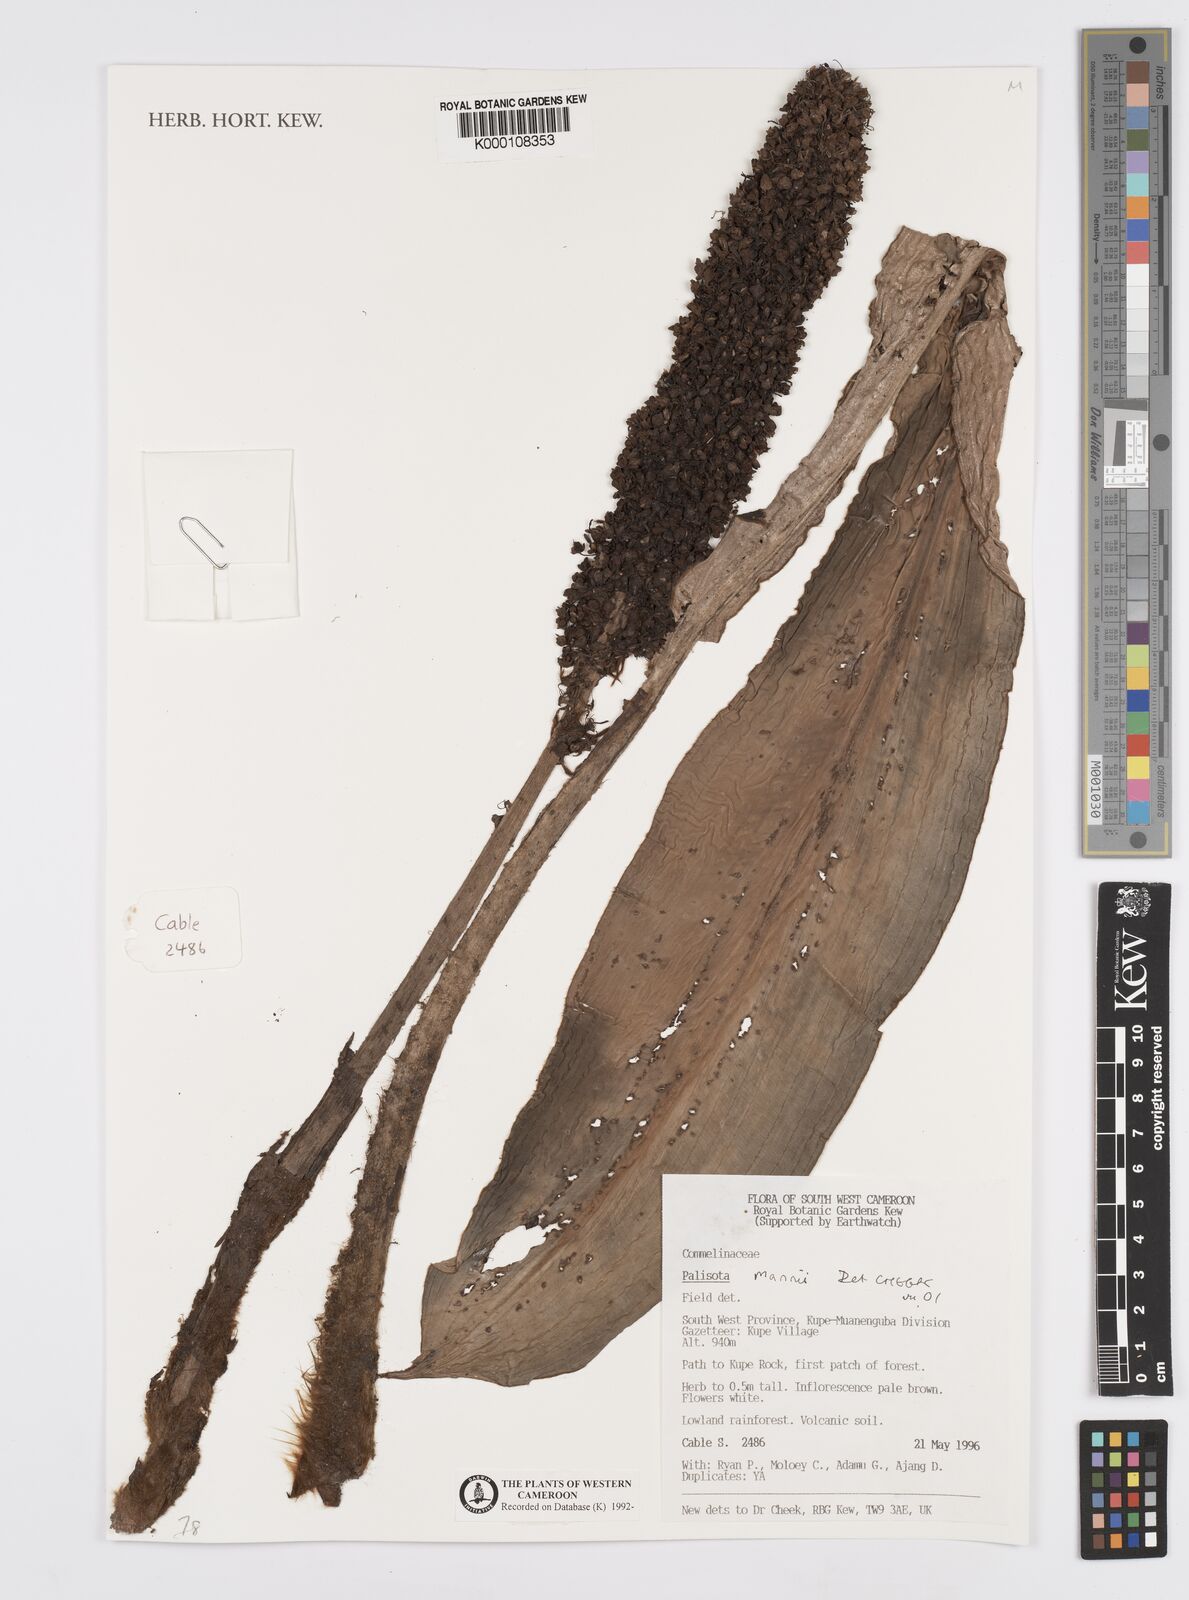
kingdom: Plantae
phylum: Tracheophyta
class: Liliopsida
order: Commelinales
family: Commelinaceae
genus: Palisota
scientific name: Palisota mannii
